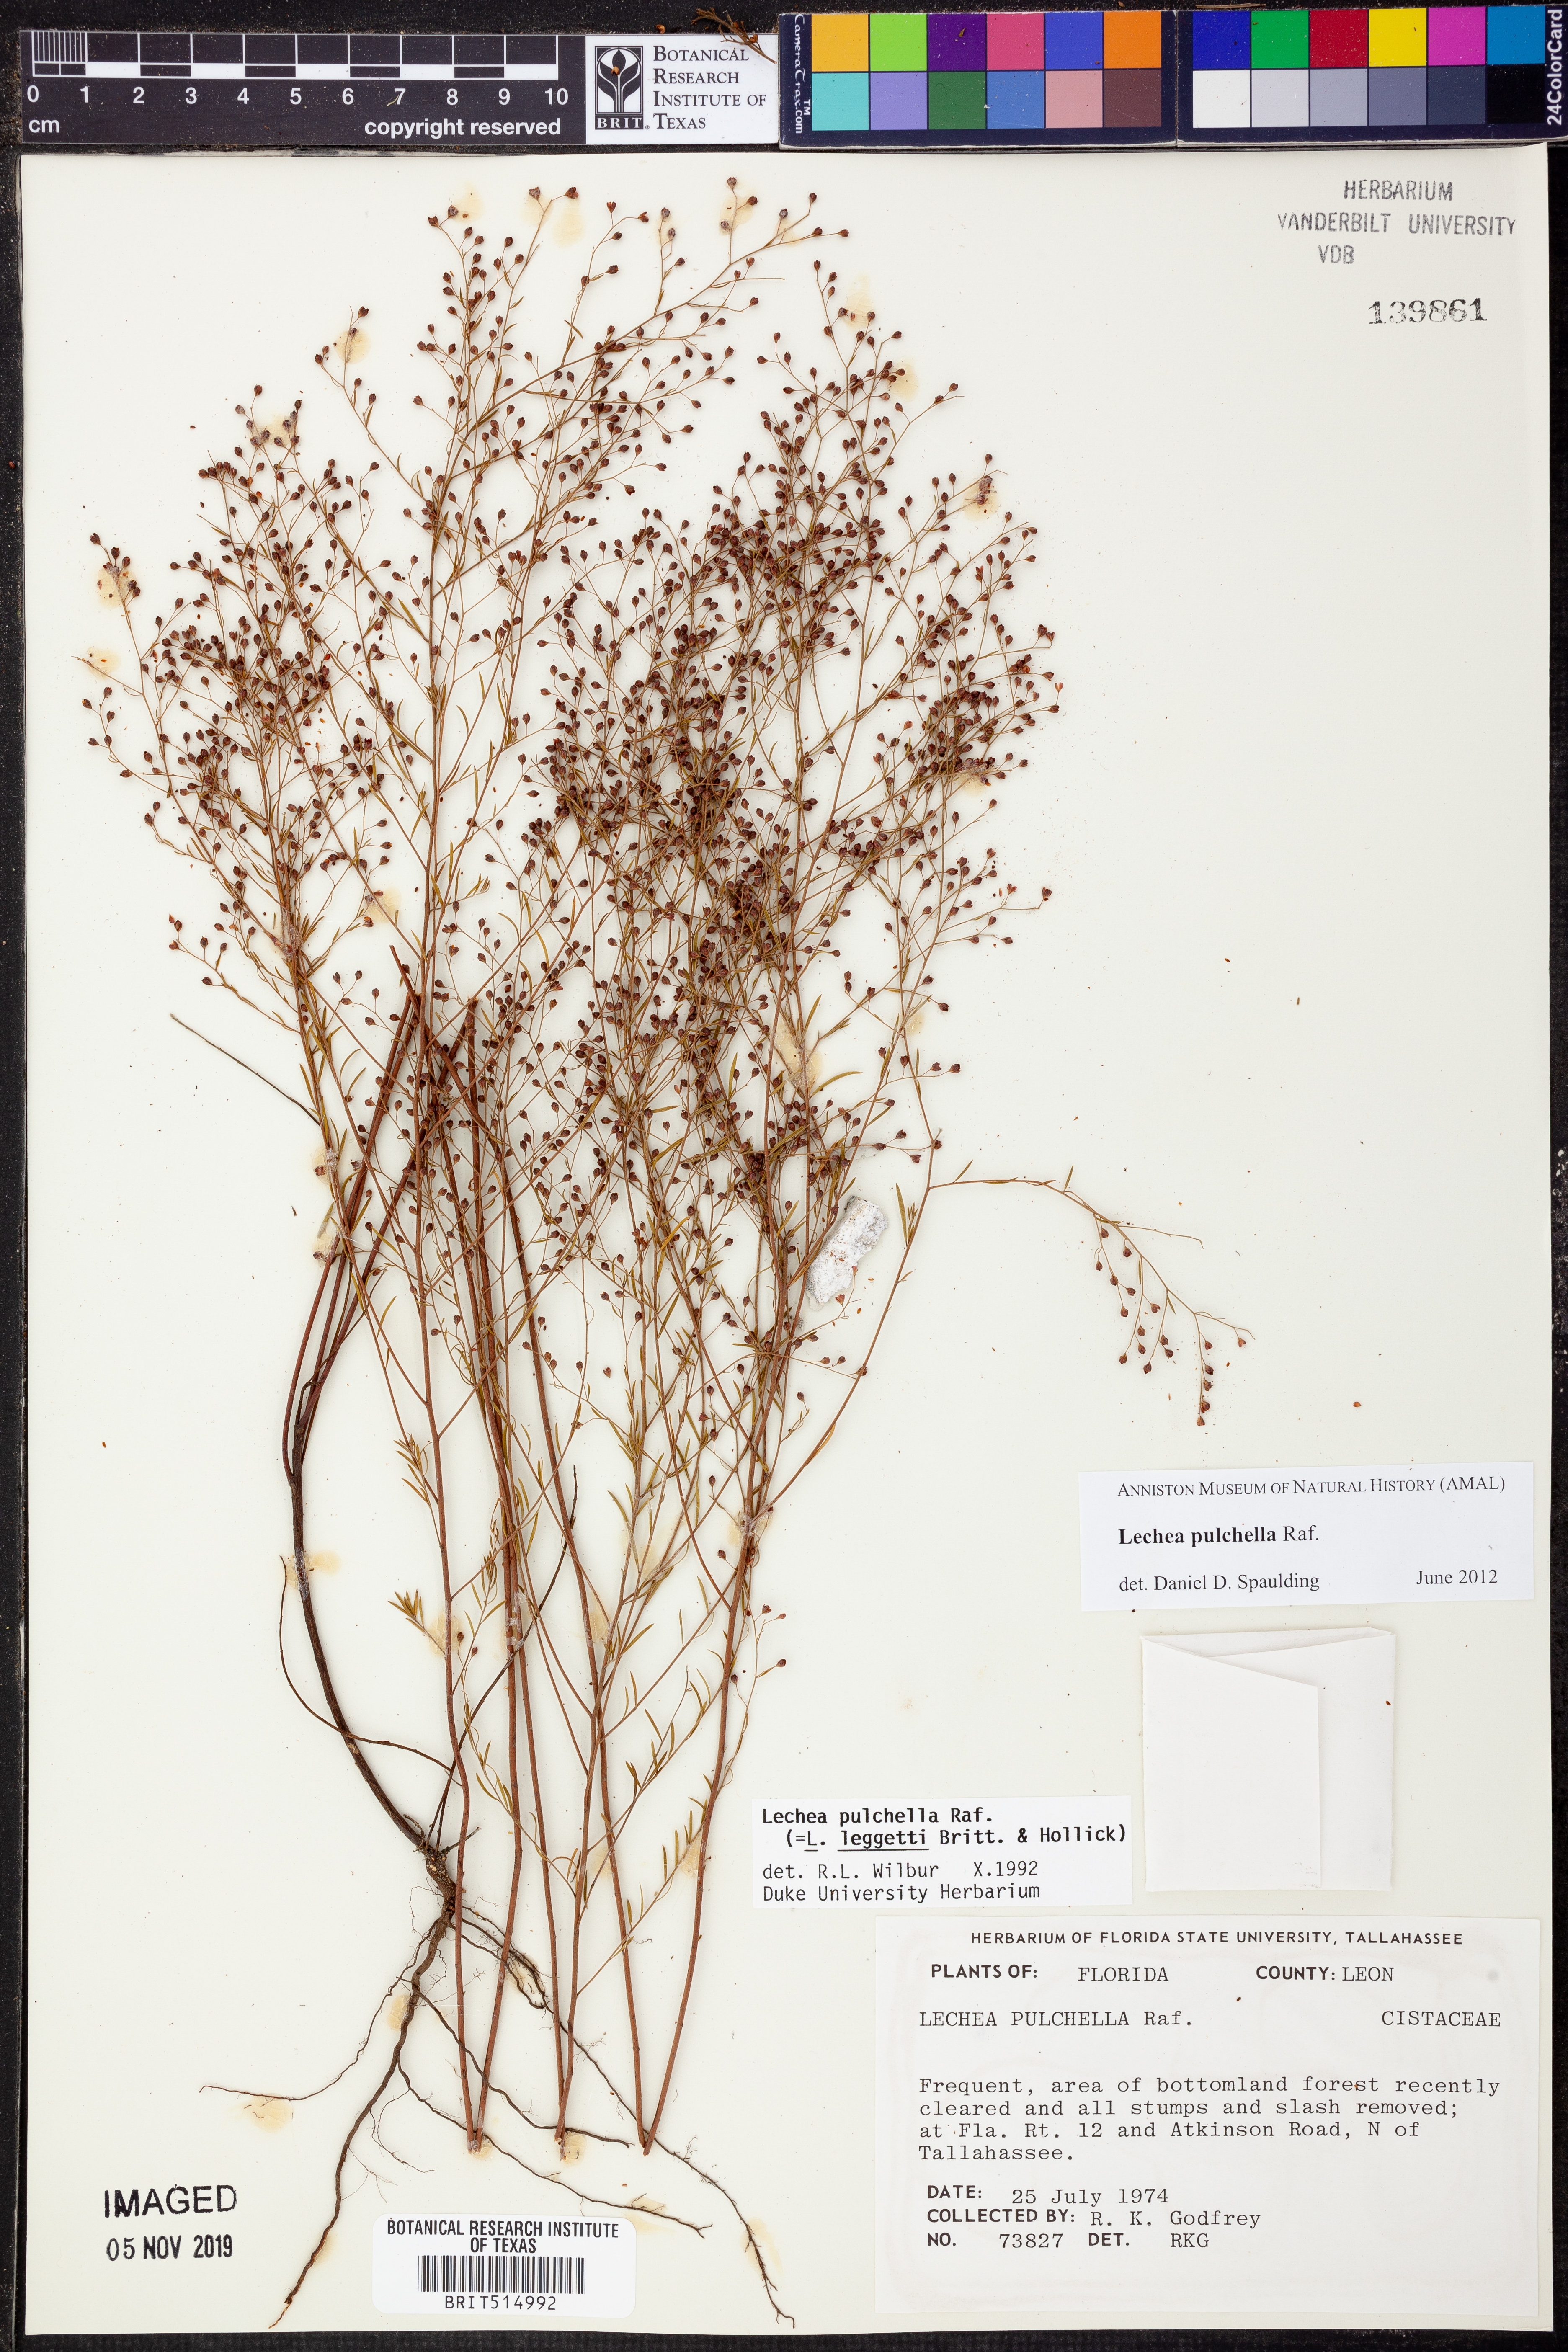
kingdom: Plantae
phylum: Tracheophyta
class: Magnoliopsida
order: Malvales
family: Cistaceae
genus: Lechea
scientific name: Lechea pulchella
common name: Leggett's pinweed
